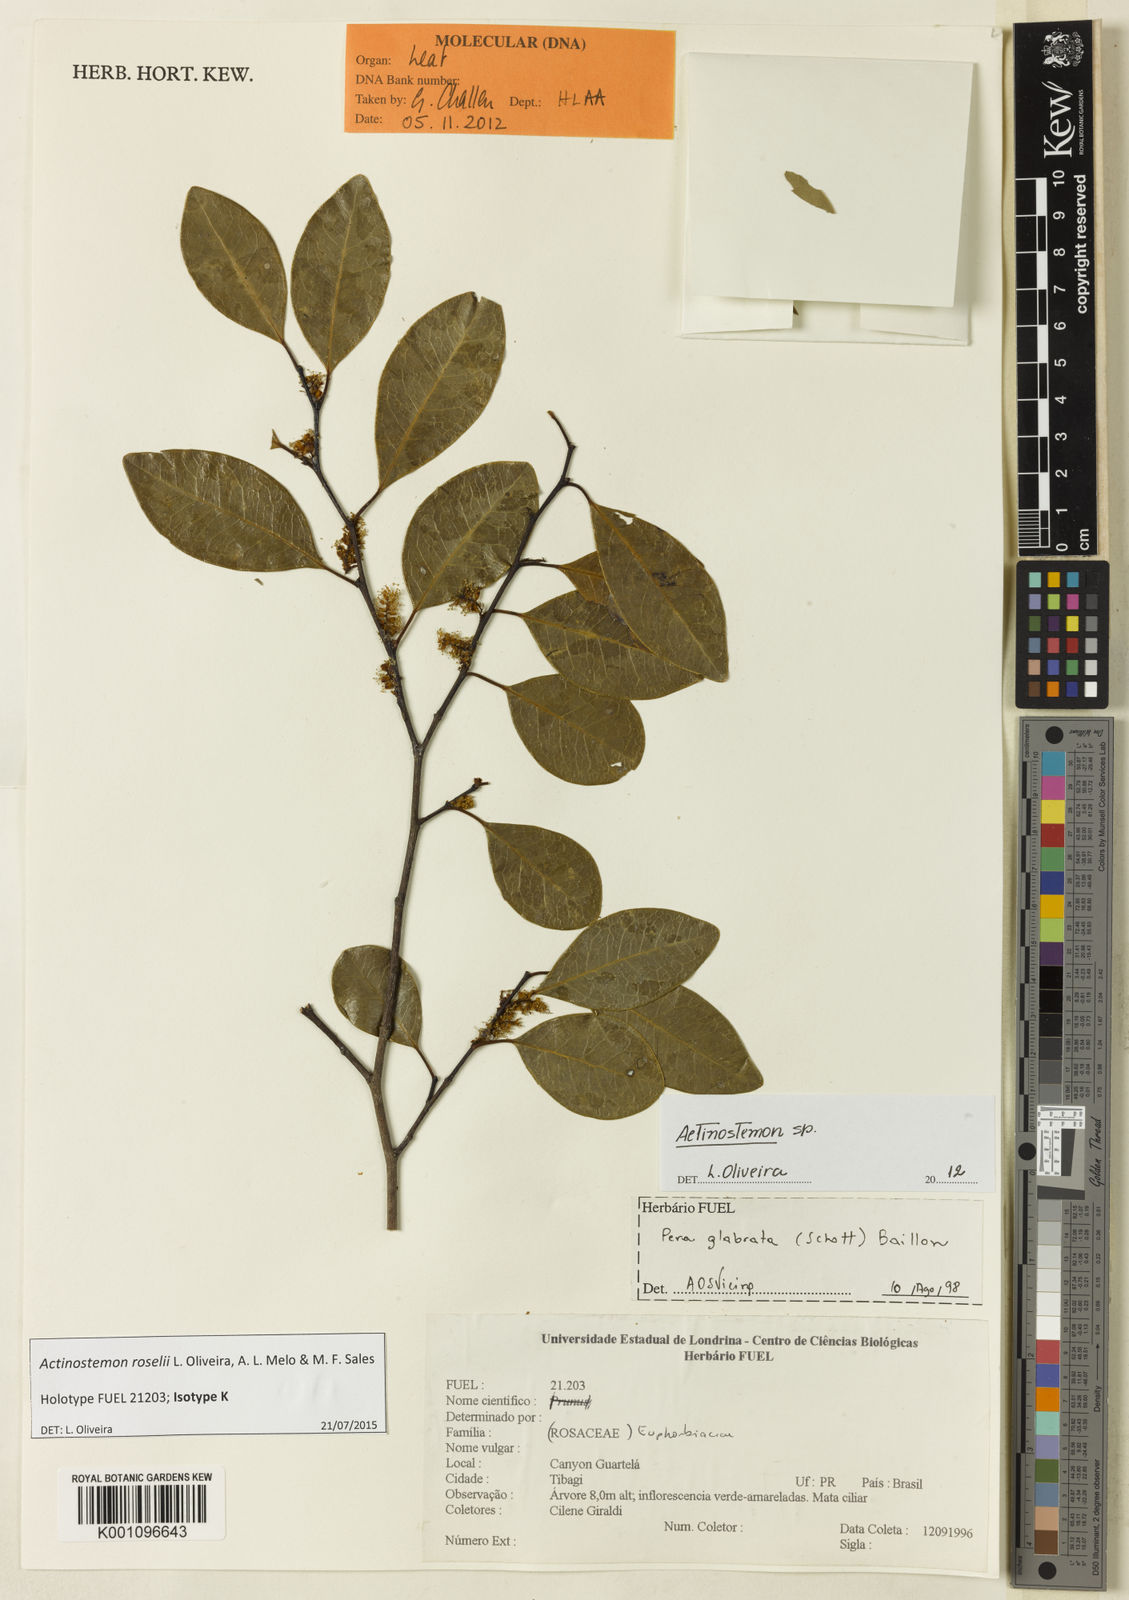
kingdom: Plantae
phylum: Tracheophyta
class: Magnoliopsida
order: Malpighiales
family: Euphorbiaceae
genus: Actinostemon
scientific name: Actinostemon
